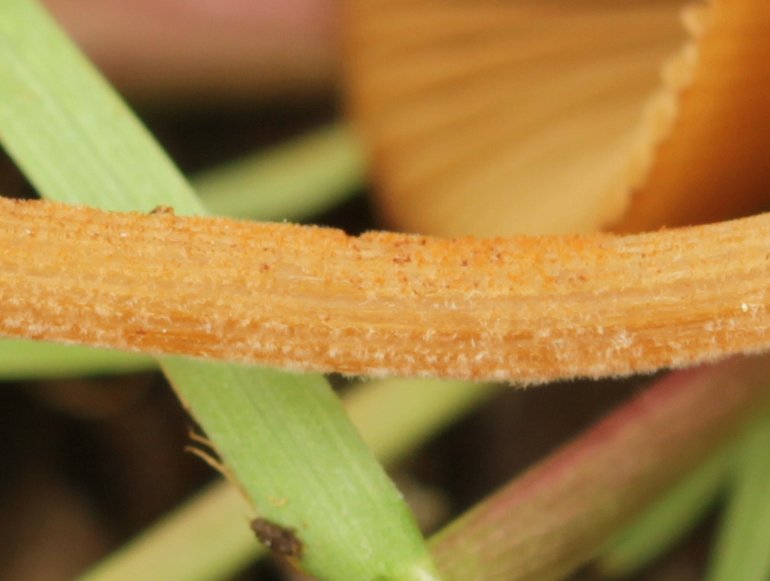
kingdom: Fungi
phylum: Basidiomycota
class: Agaricomycetes
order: Agaricales
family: Bolbitiaceae
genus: Conocybe
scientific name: Conocybe subpubescens
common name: krat-keglehat
